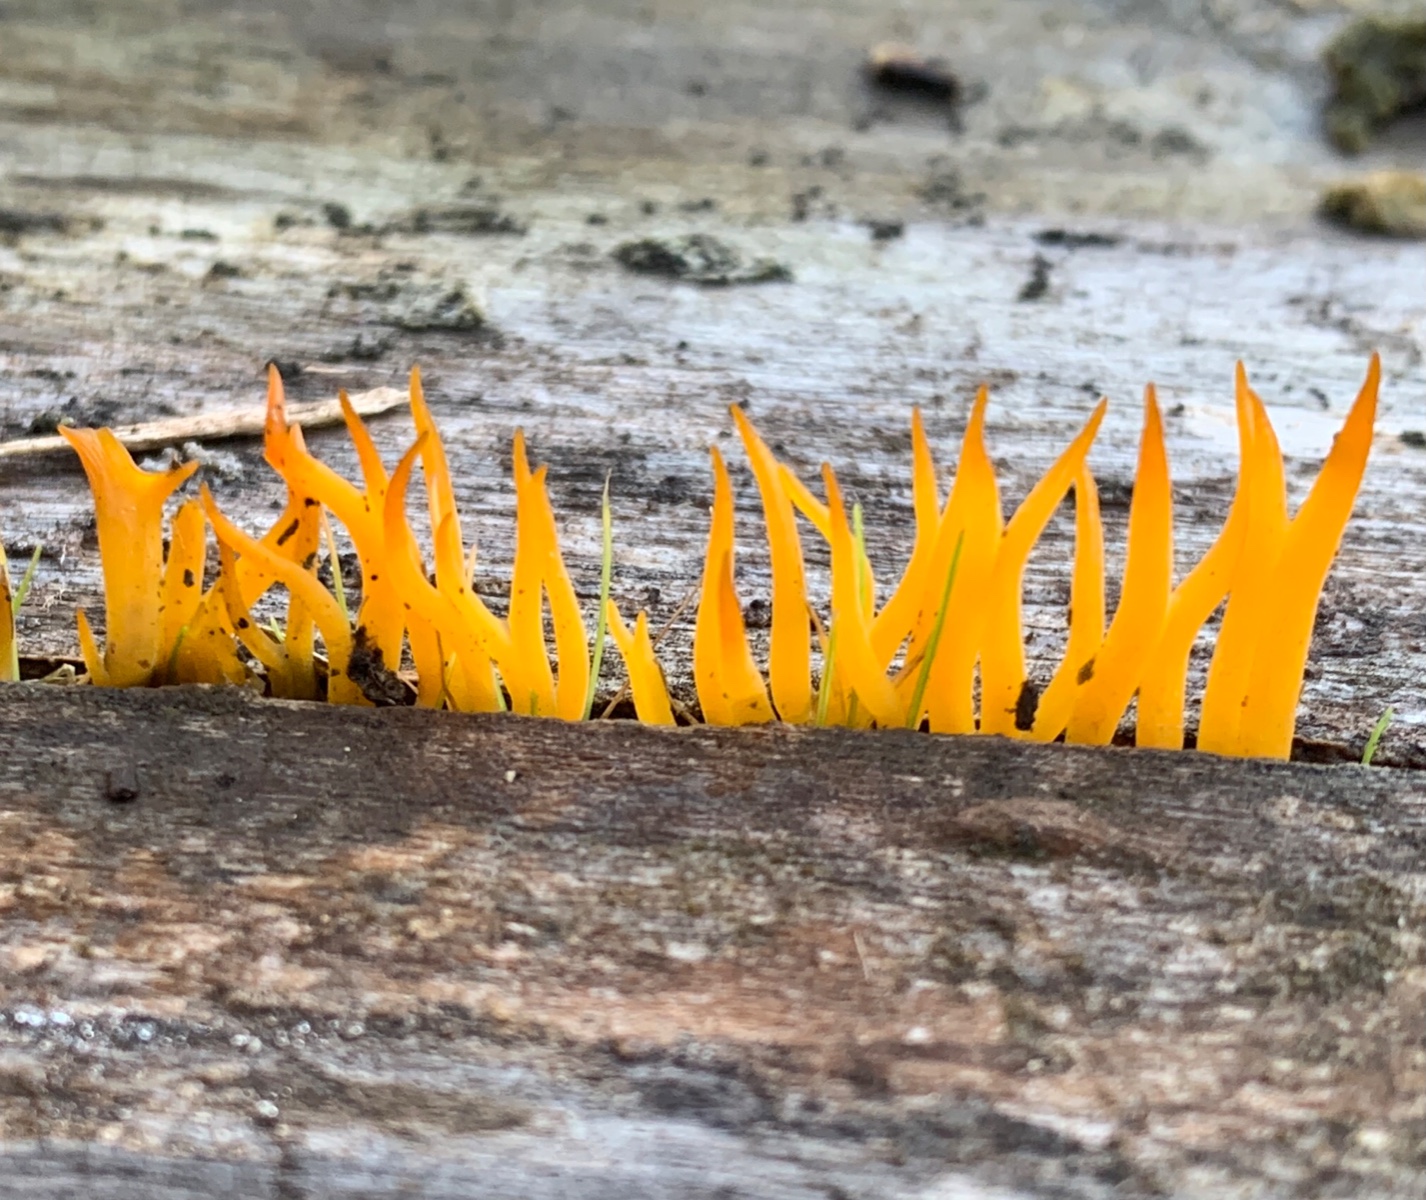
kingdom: Fungi
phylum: Basidiomycota
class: Dacrymycetes
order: Dacrymycetales
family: Dacrymycetaceae
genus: Calocera
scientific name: Calocera cornea
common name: liden guldgaffel
